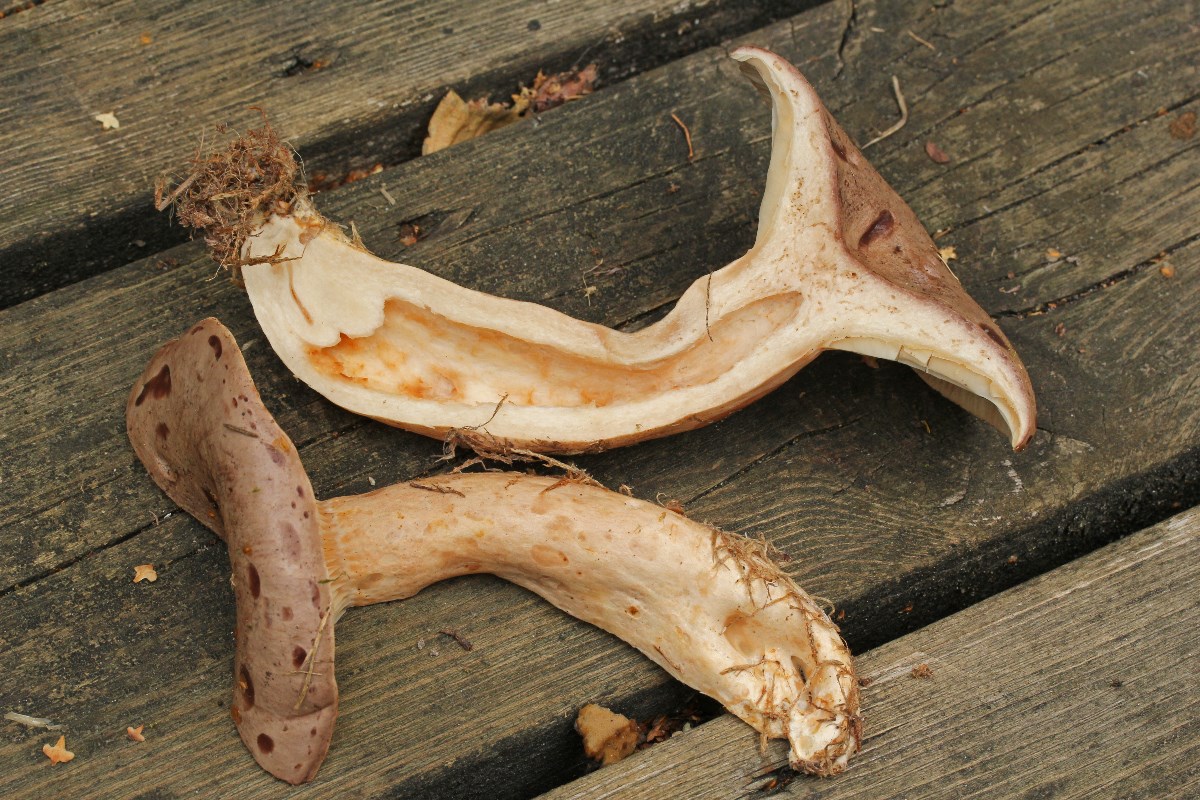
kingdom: Fungi
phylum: Basidiomycota
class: Agaricomycetes
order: Russulales
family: Russulaceae
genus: Lactarius
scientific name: Lactarius trivialis
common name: nordisk mælkehat
